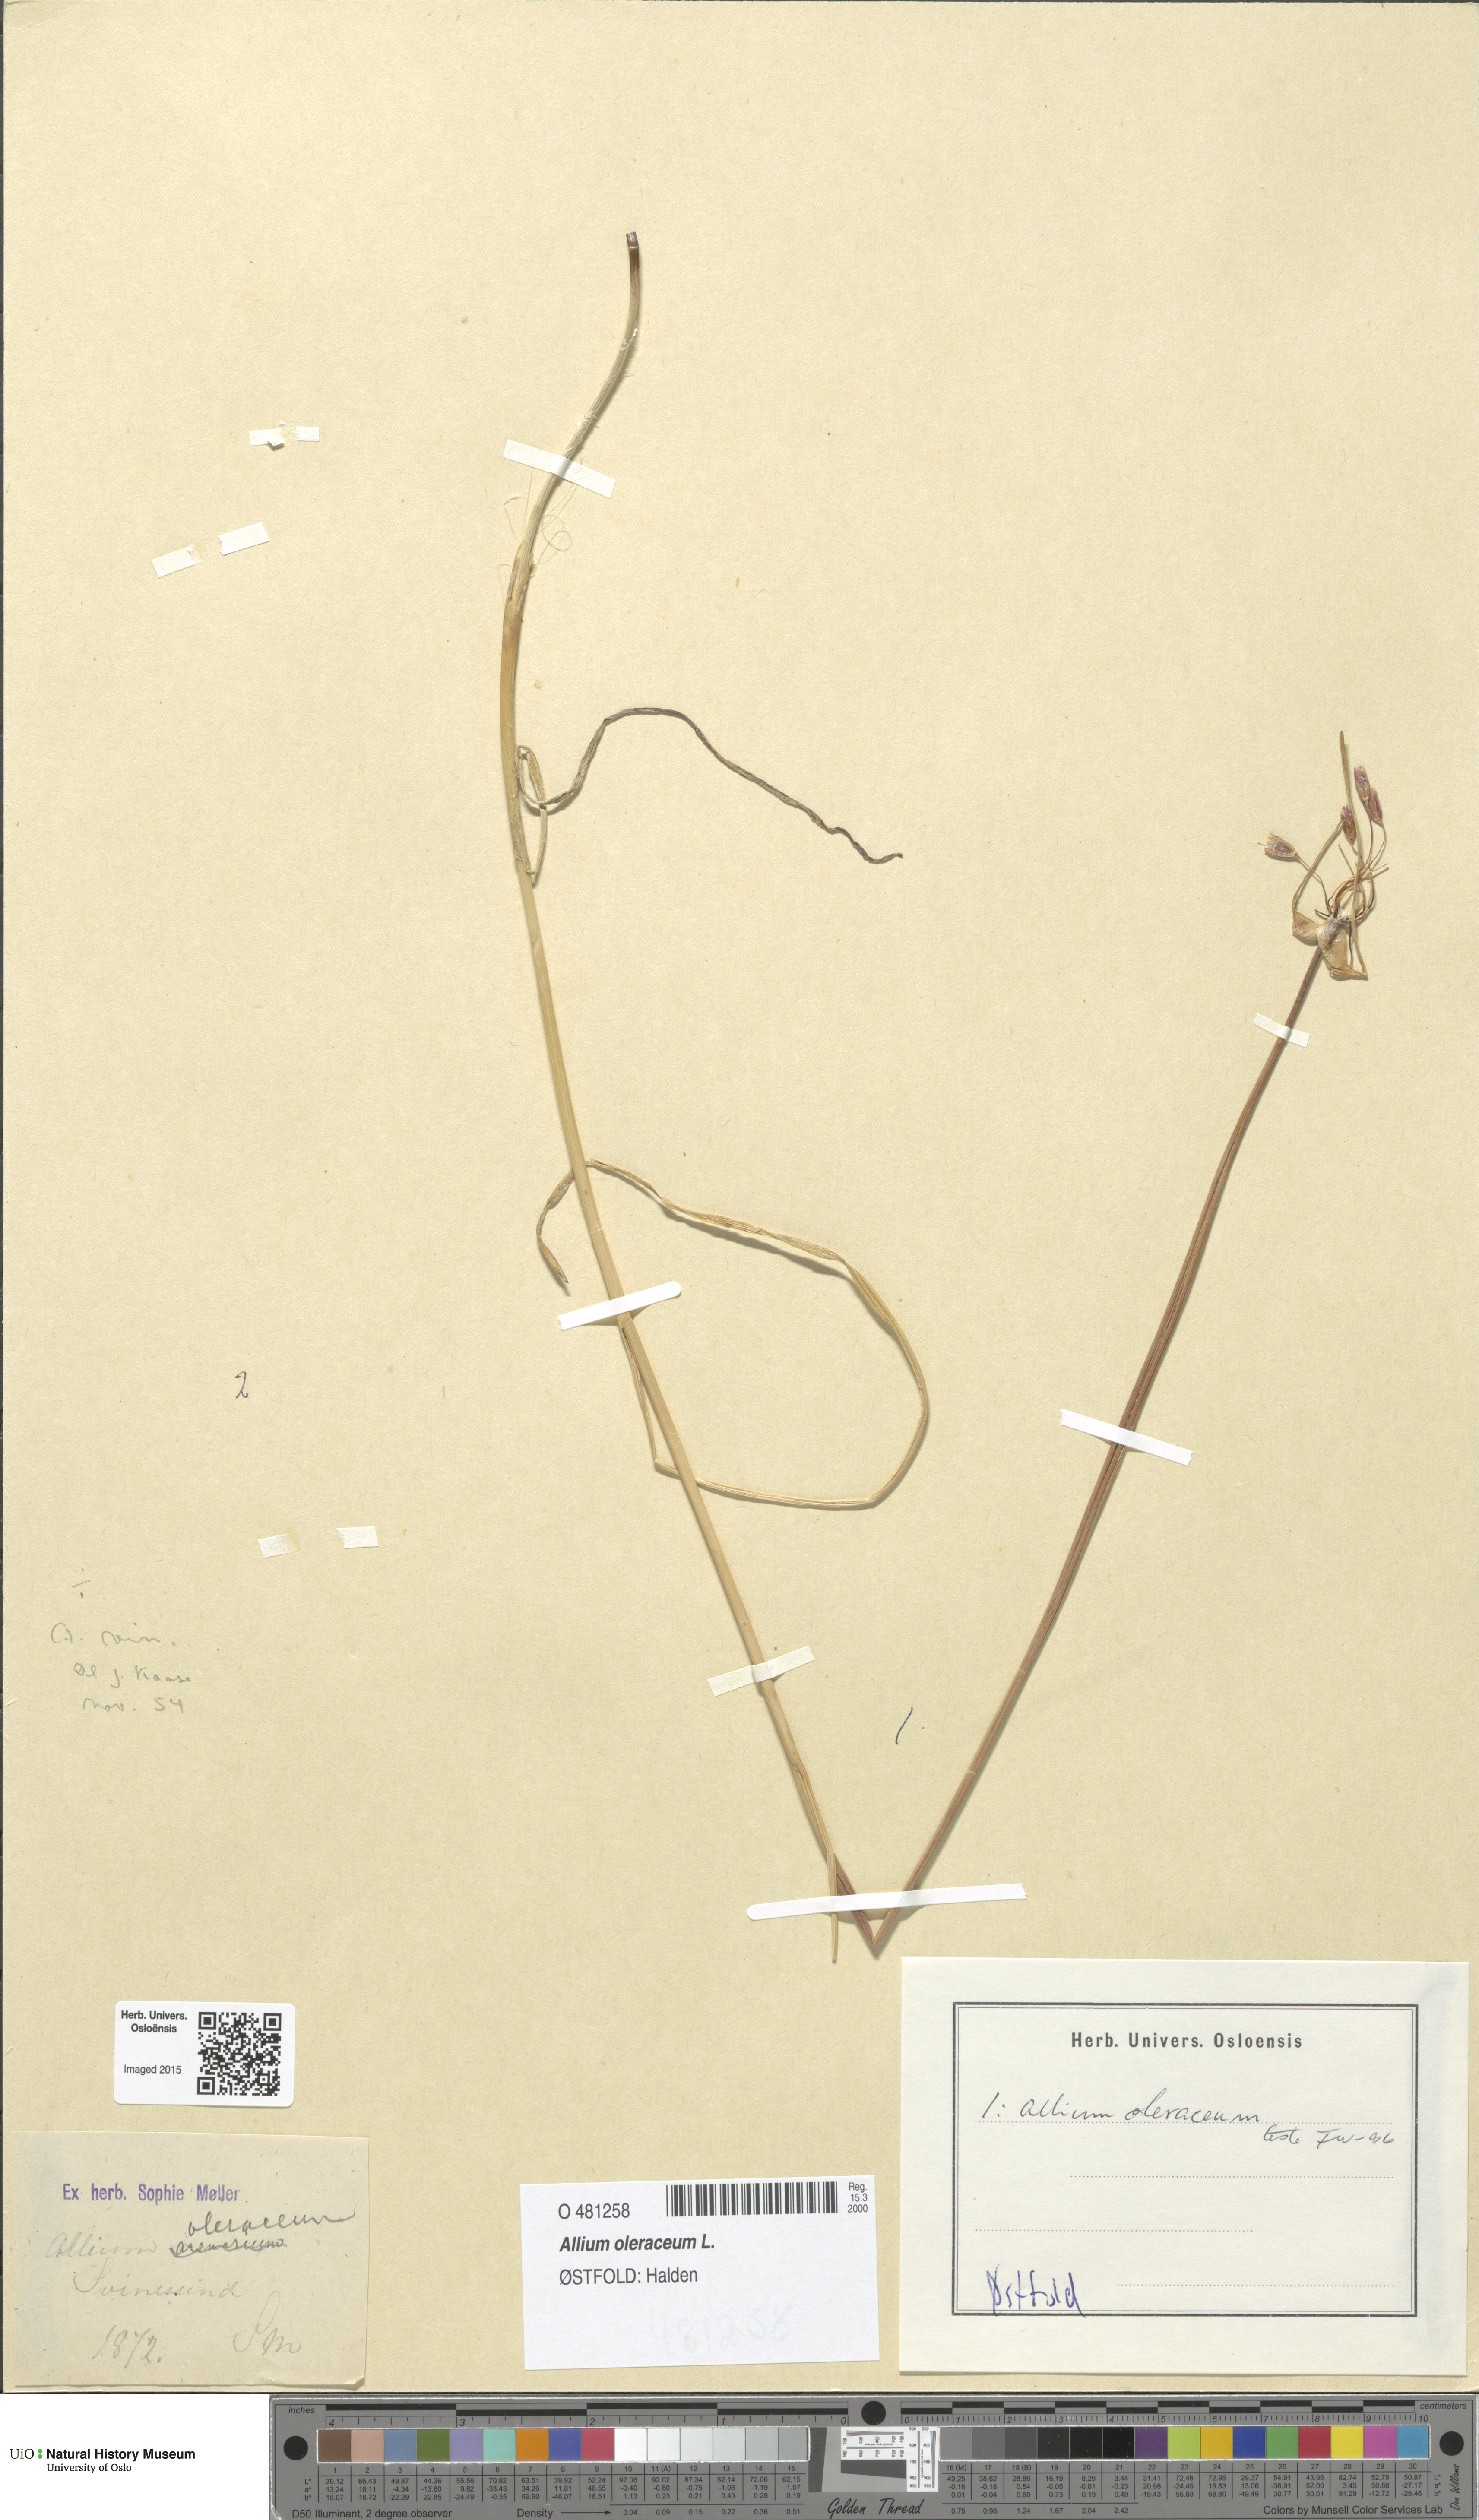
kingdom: Plantae
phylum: Tracheophyta
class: Liliopsida
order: Asparagales
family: Amaryllidaceae
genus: Allium
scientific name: Allium oleraceum
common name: Field garlic
